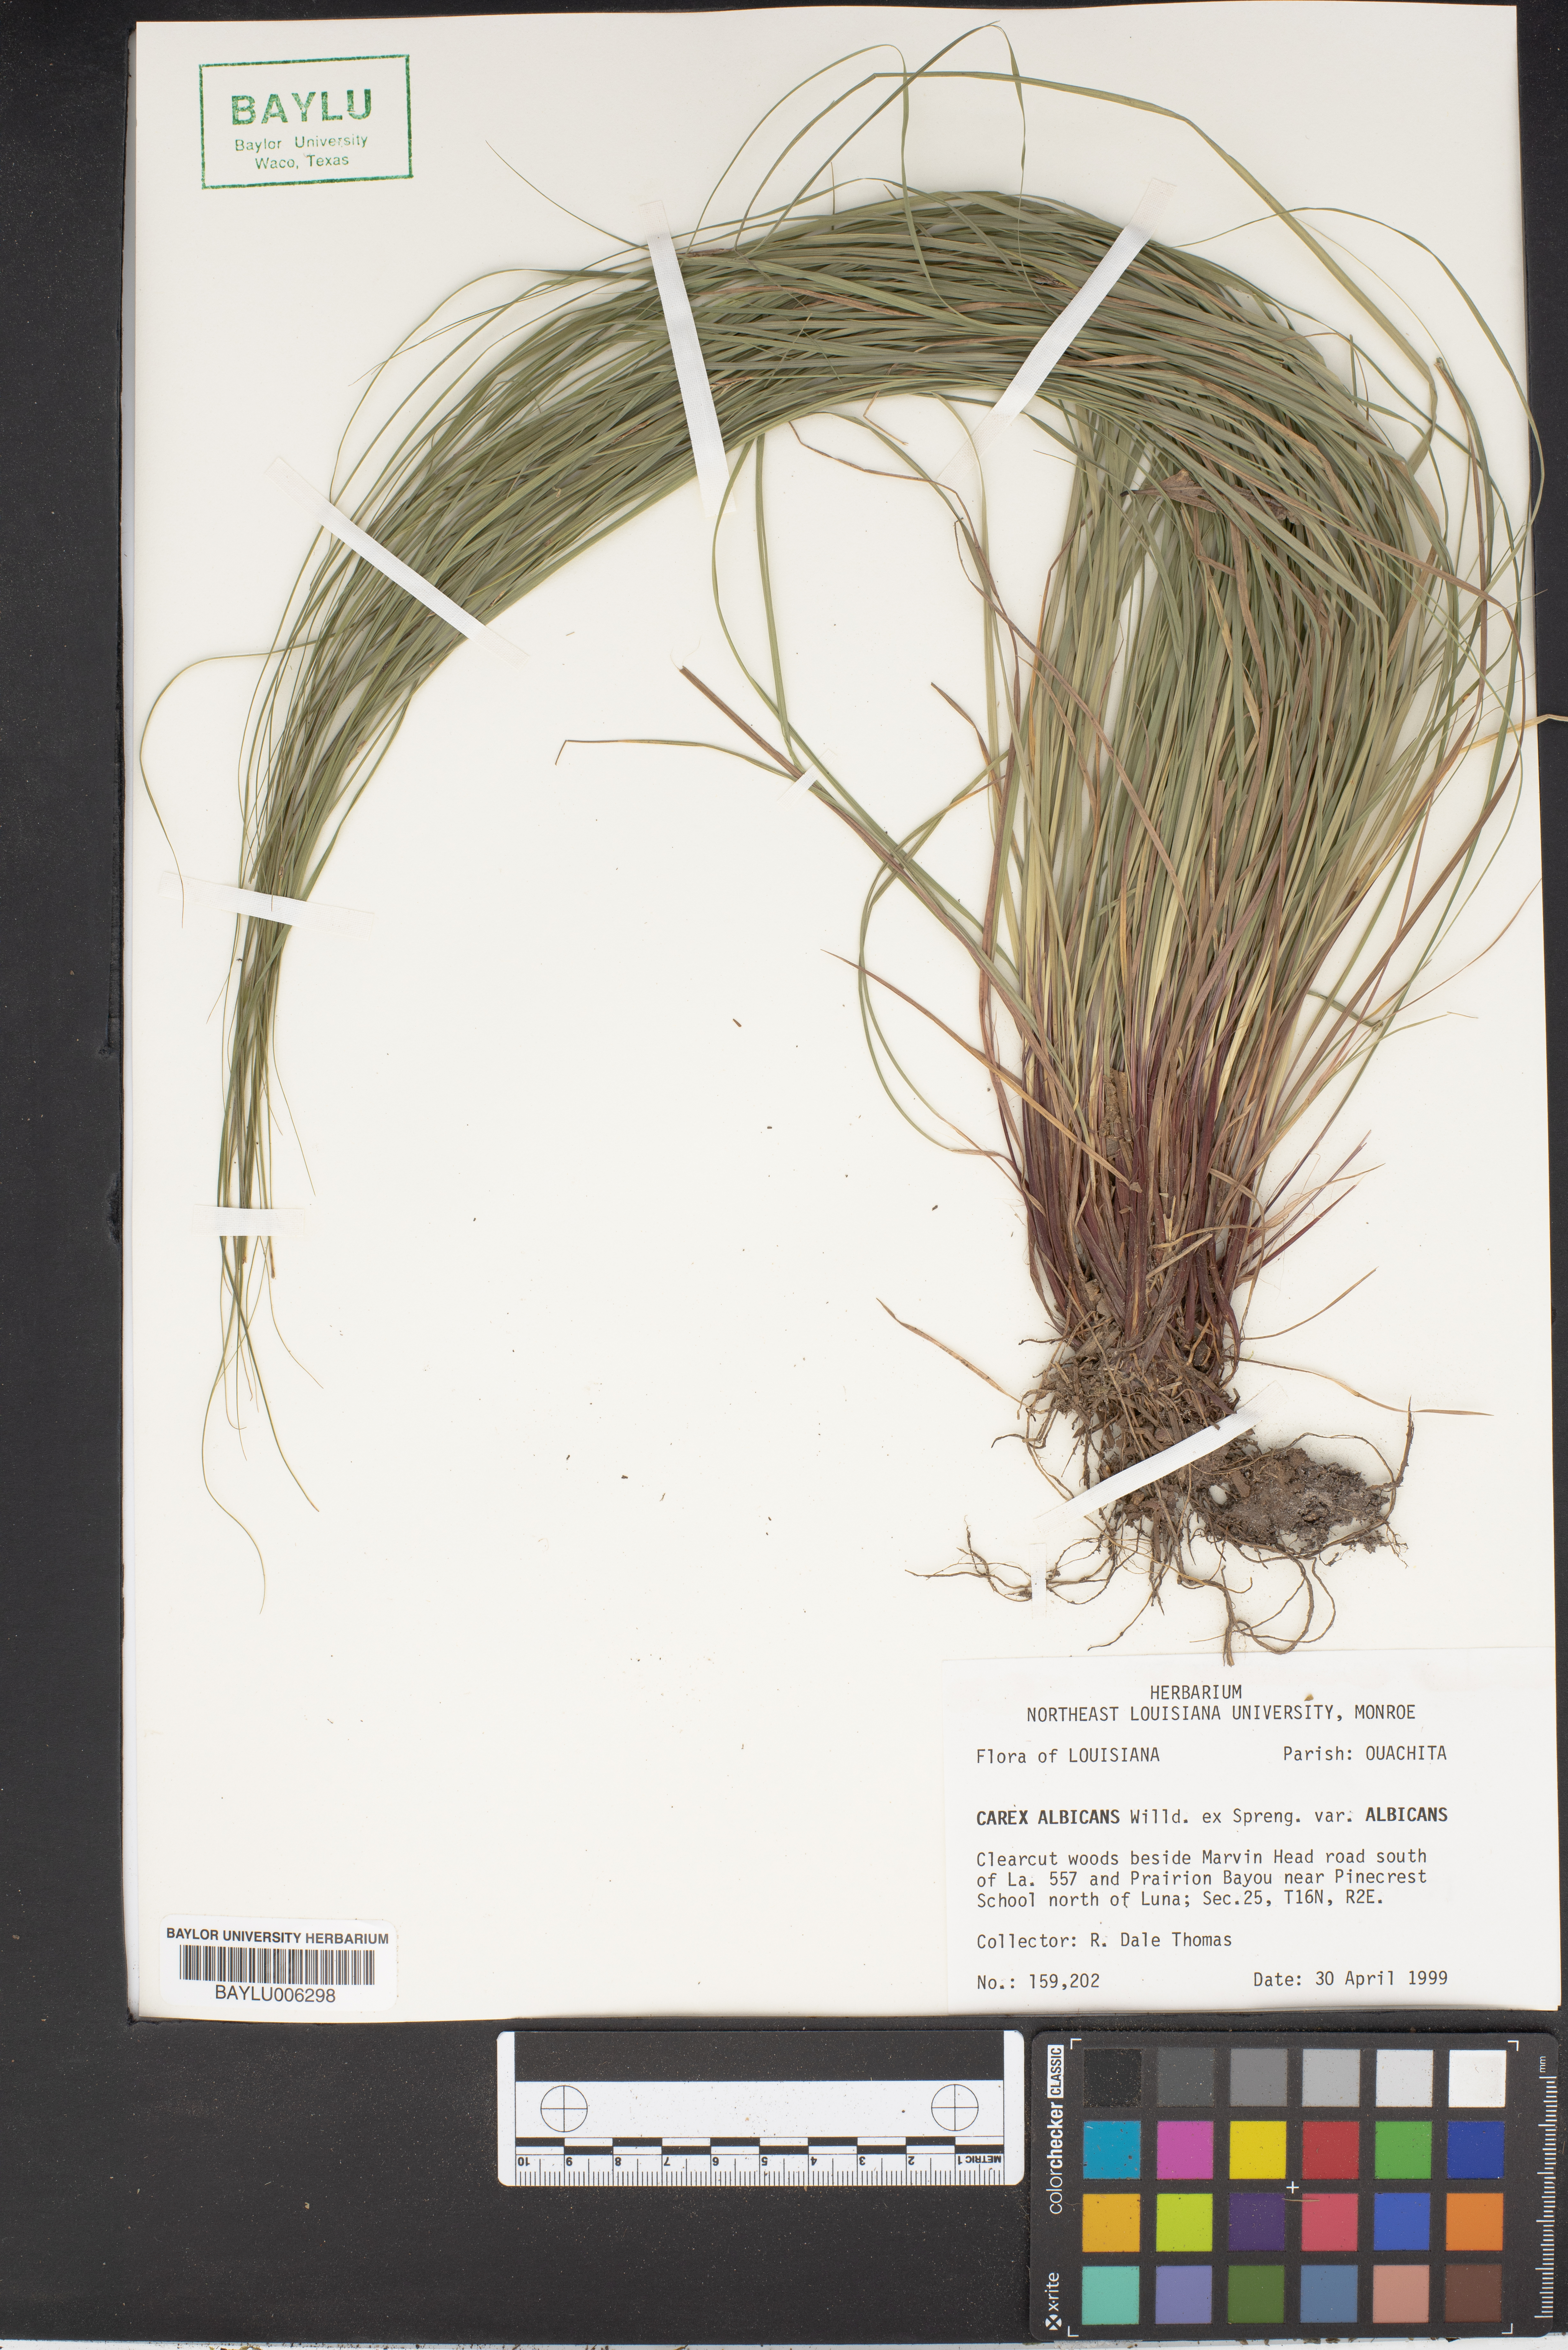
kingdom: Plantae
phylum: Tracheophyta
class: Liliopsida
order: Poales
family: Cyperaceae
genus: Carex
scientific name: Carex albicans
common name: Bellow-beaked sedge
